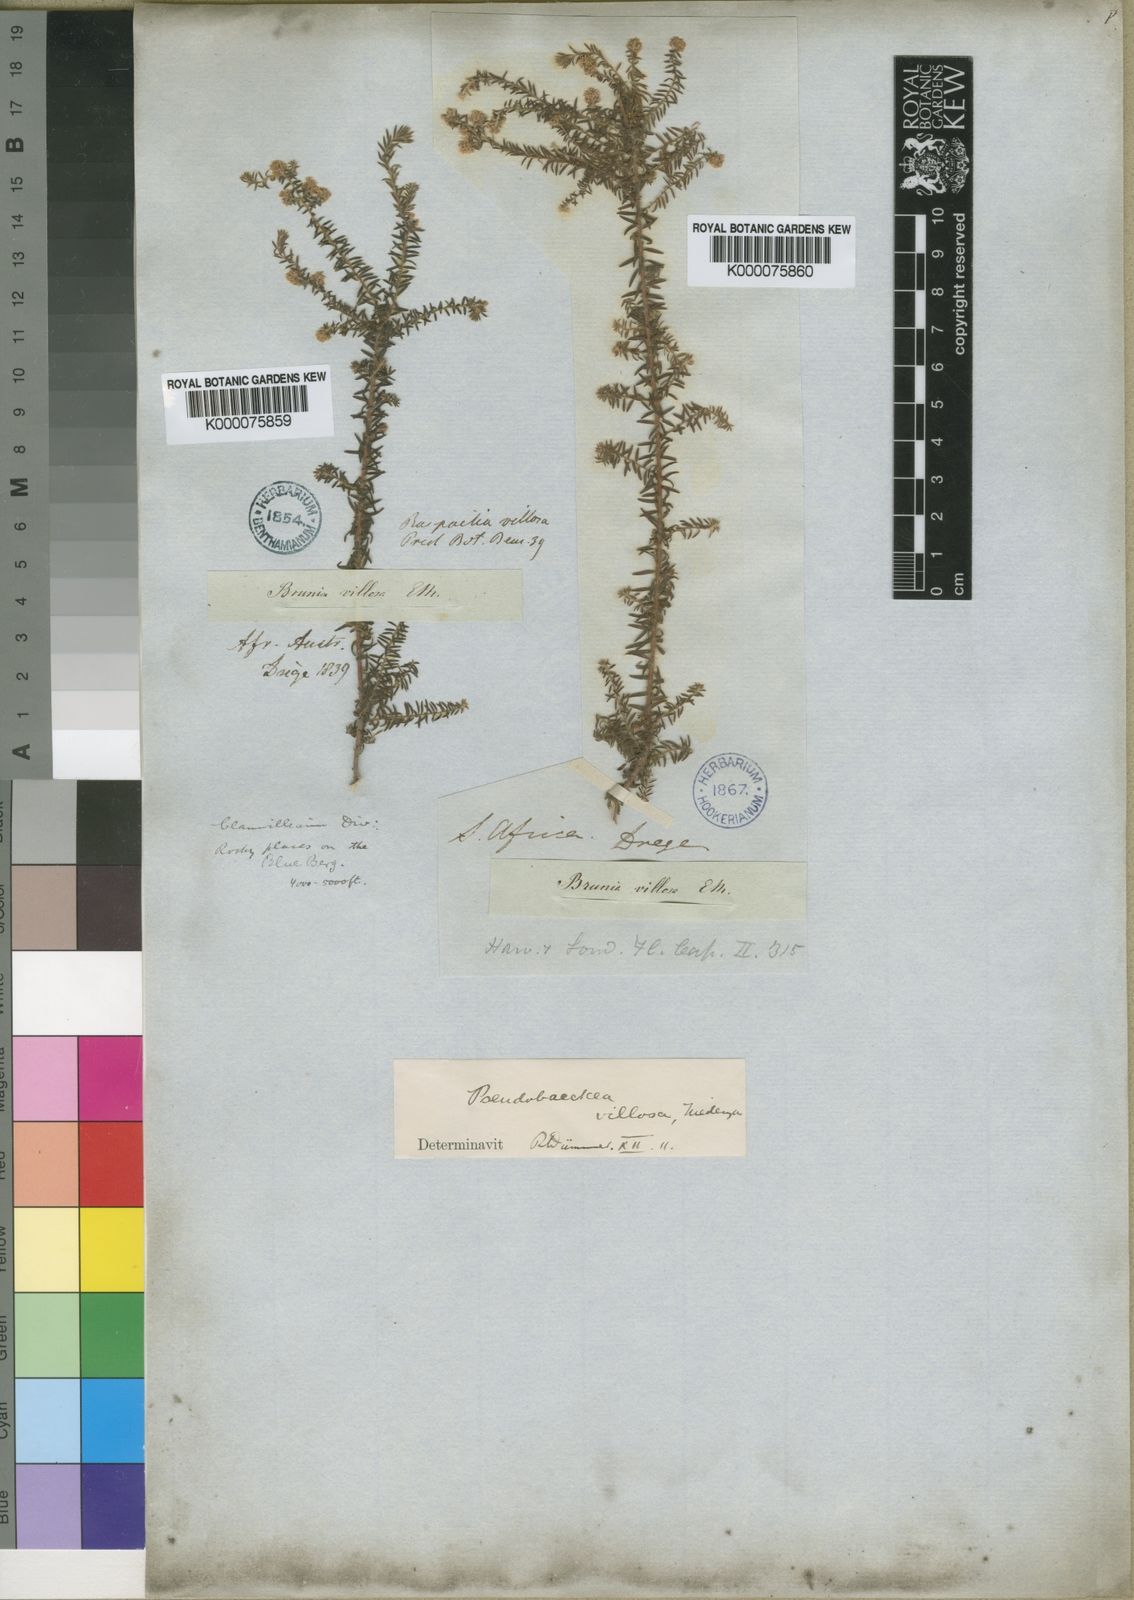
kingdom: Plantae
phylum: Tracheophyta
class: Magnoliopsida
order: Bruniales
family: Bruniaceae
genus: Brunia
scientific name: Brunia villosa
